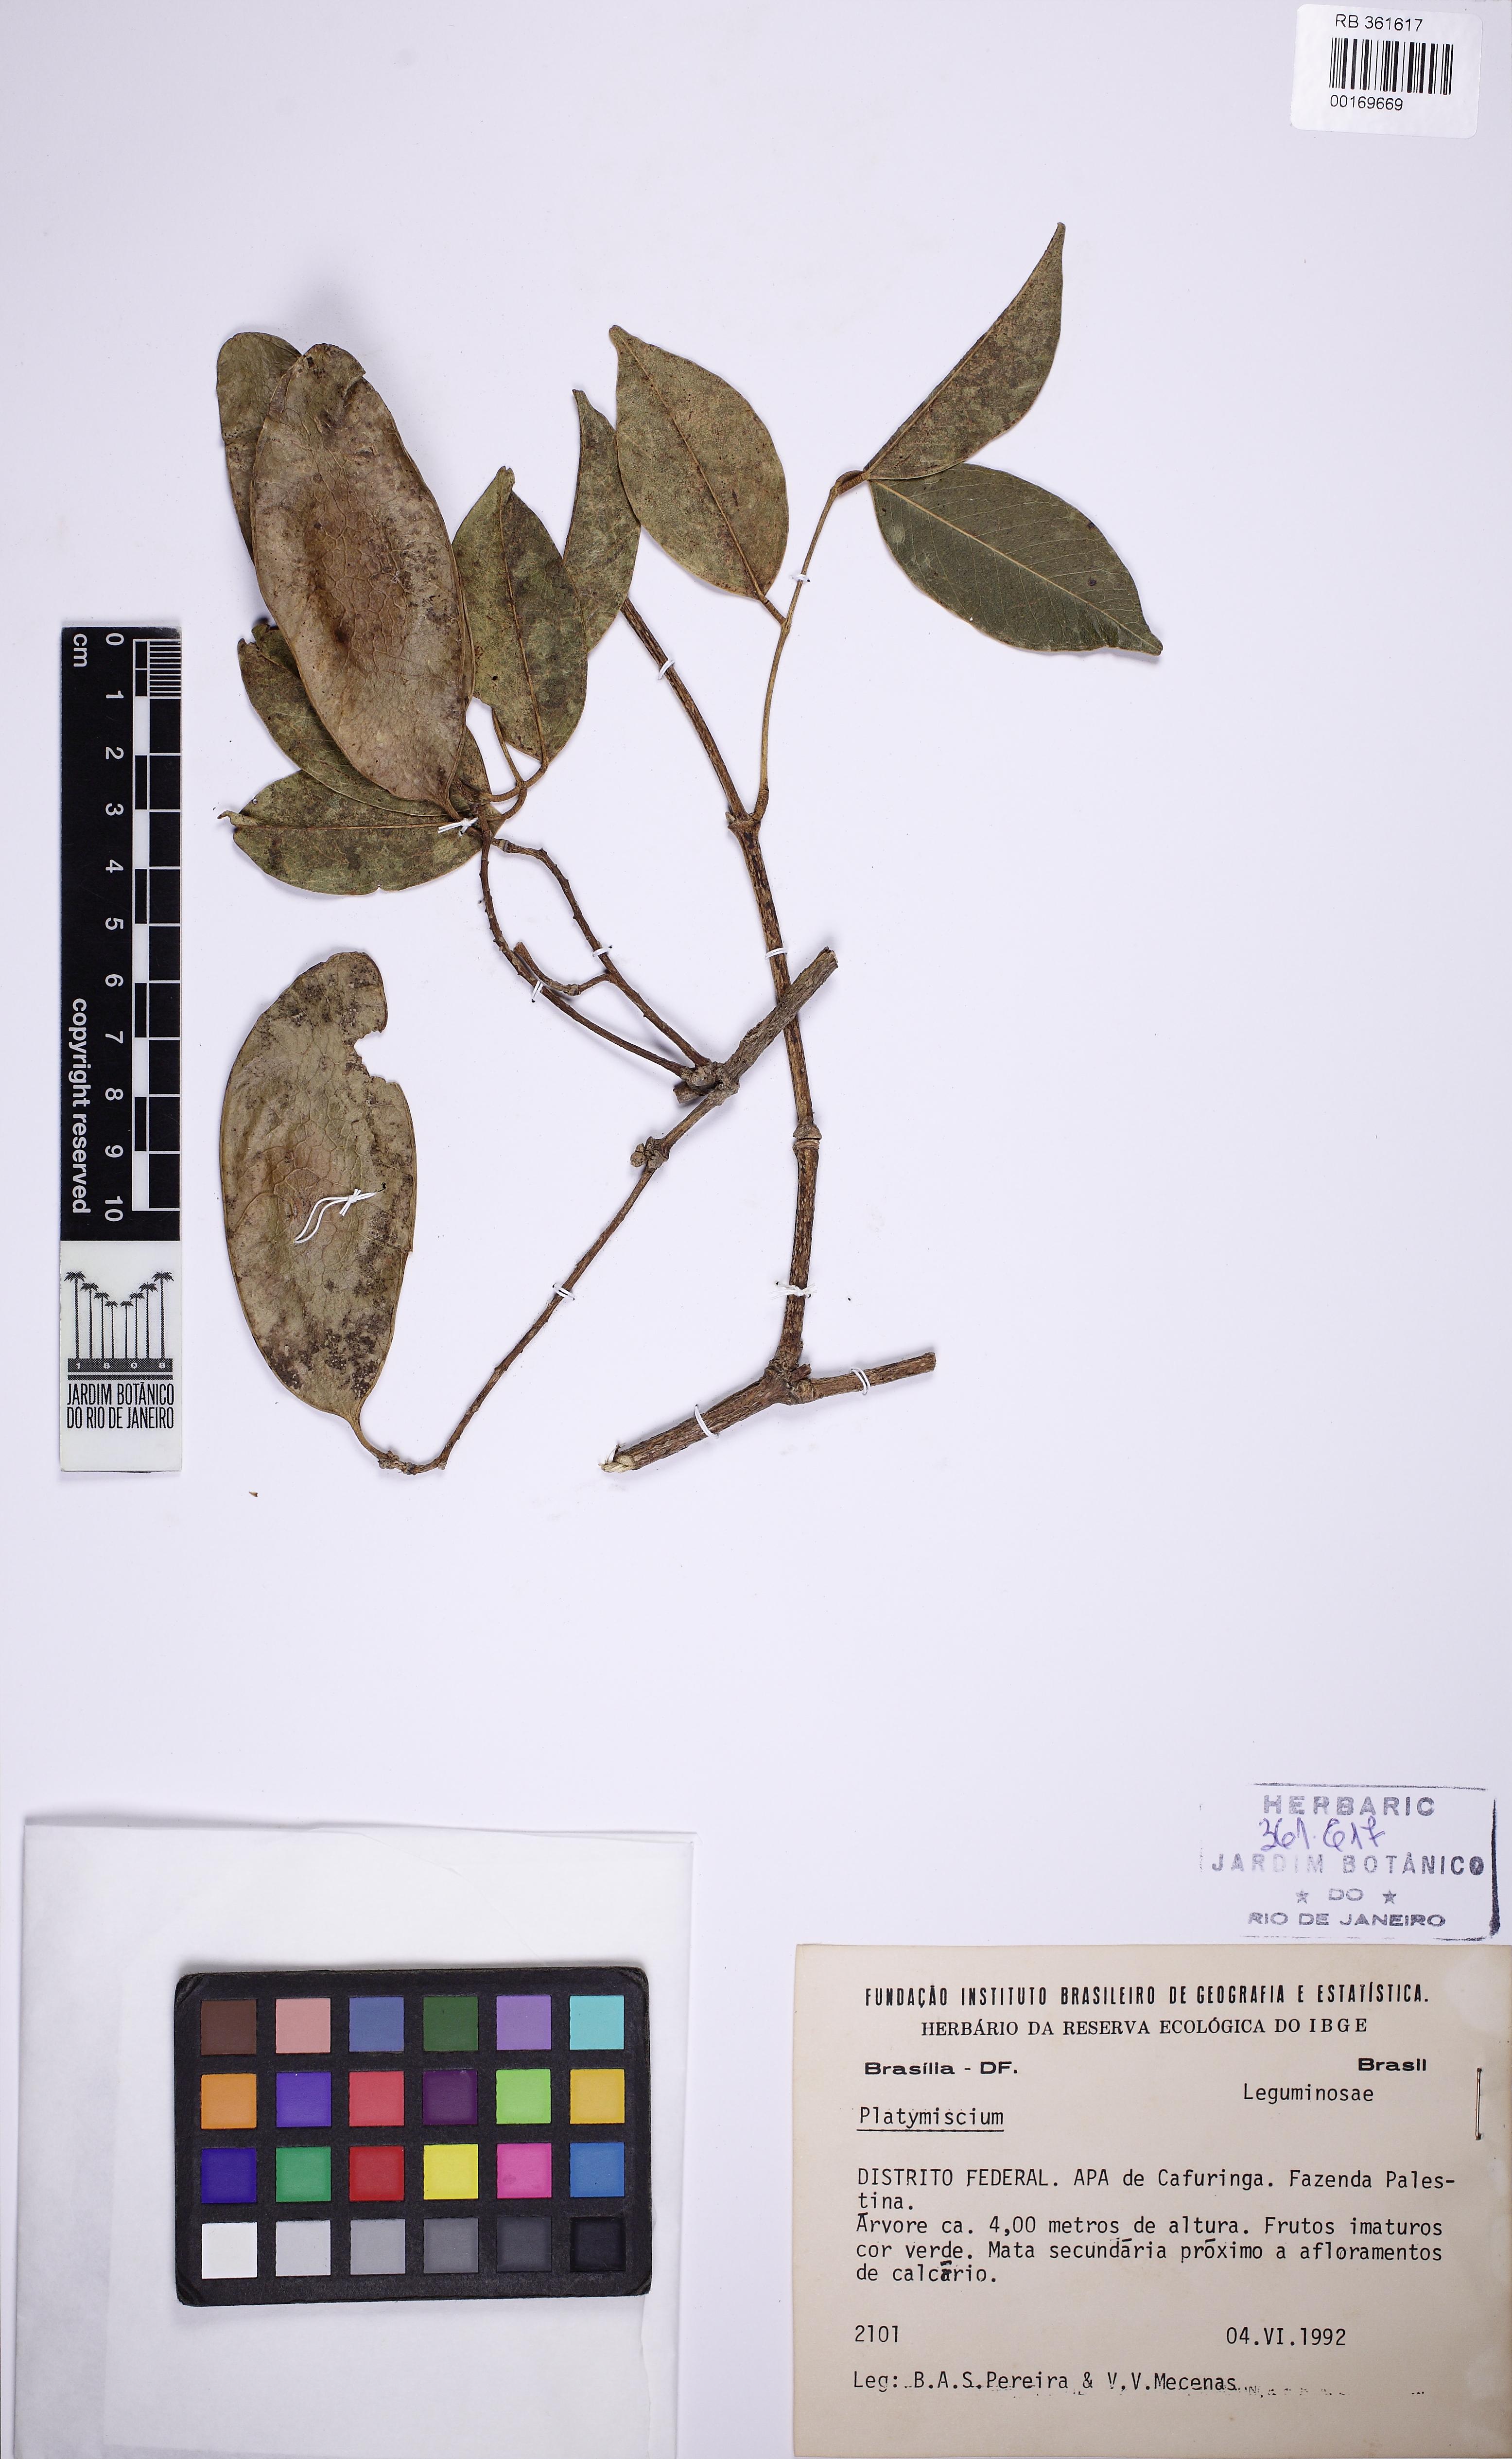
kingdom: Plantae
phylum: Tracheophyta
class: Magnoliopsida
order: Fabales
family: Fabaceae
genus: Platymiscium
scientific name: Platymiscium
